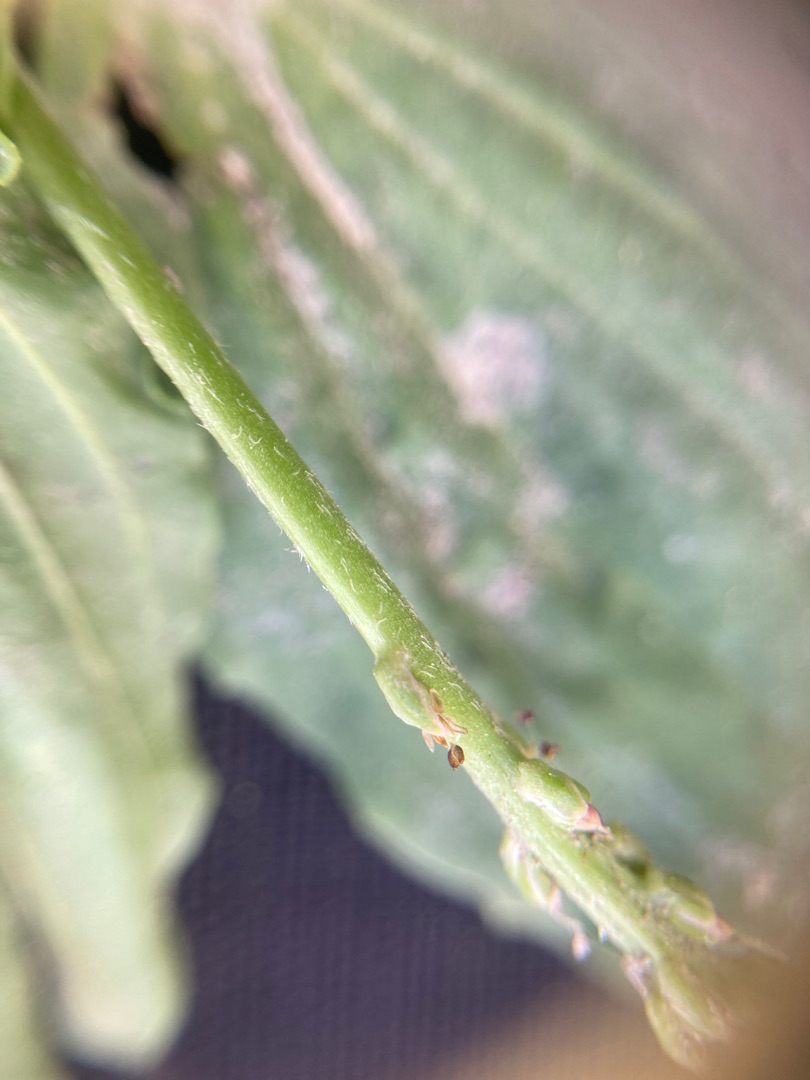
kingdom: Plantae
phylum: Tracheophyta
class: Magnoliopsida
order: Lamiales
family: Plantaginaceae
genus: Plantago
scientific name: Plantago major
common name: Glat vejbred
